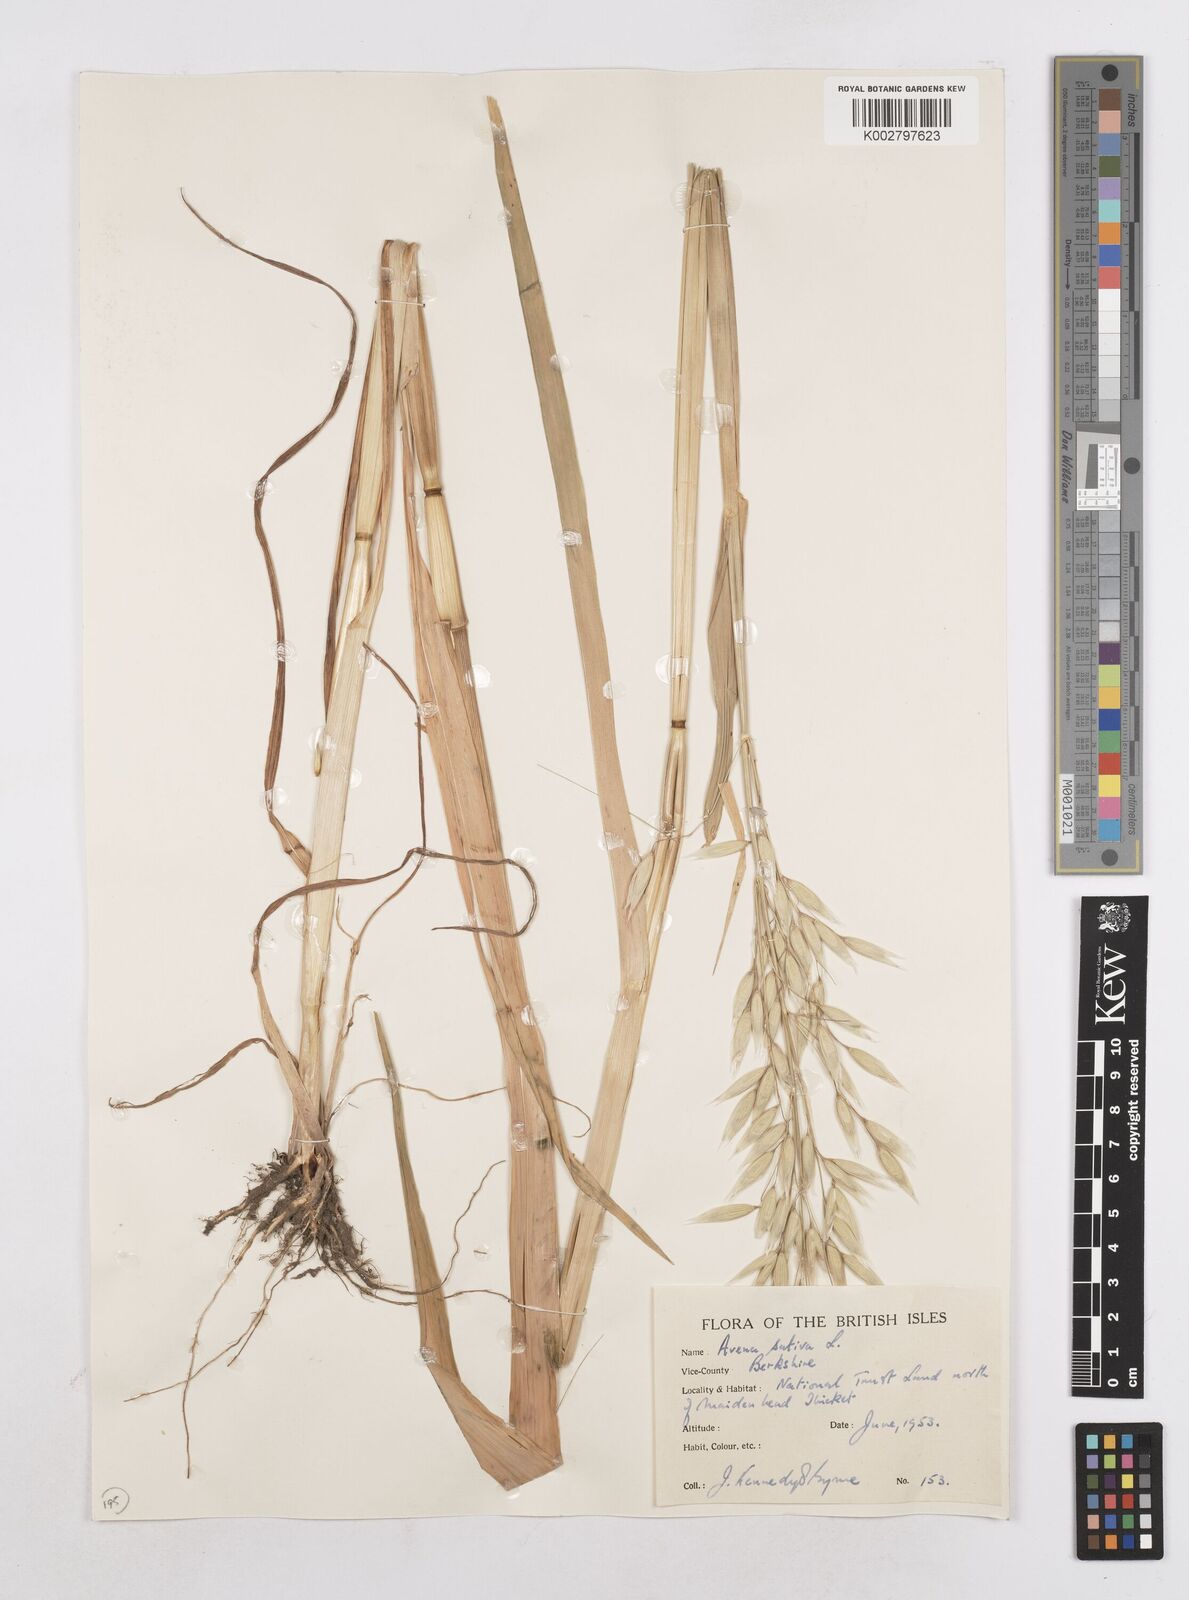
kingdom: Plantae
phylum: Tracheophyta
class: Liliopsida
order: Poales
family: Poaceae
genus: Avena
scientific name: Avena sativa
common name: Oat
